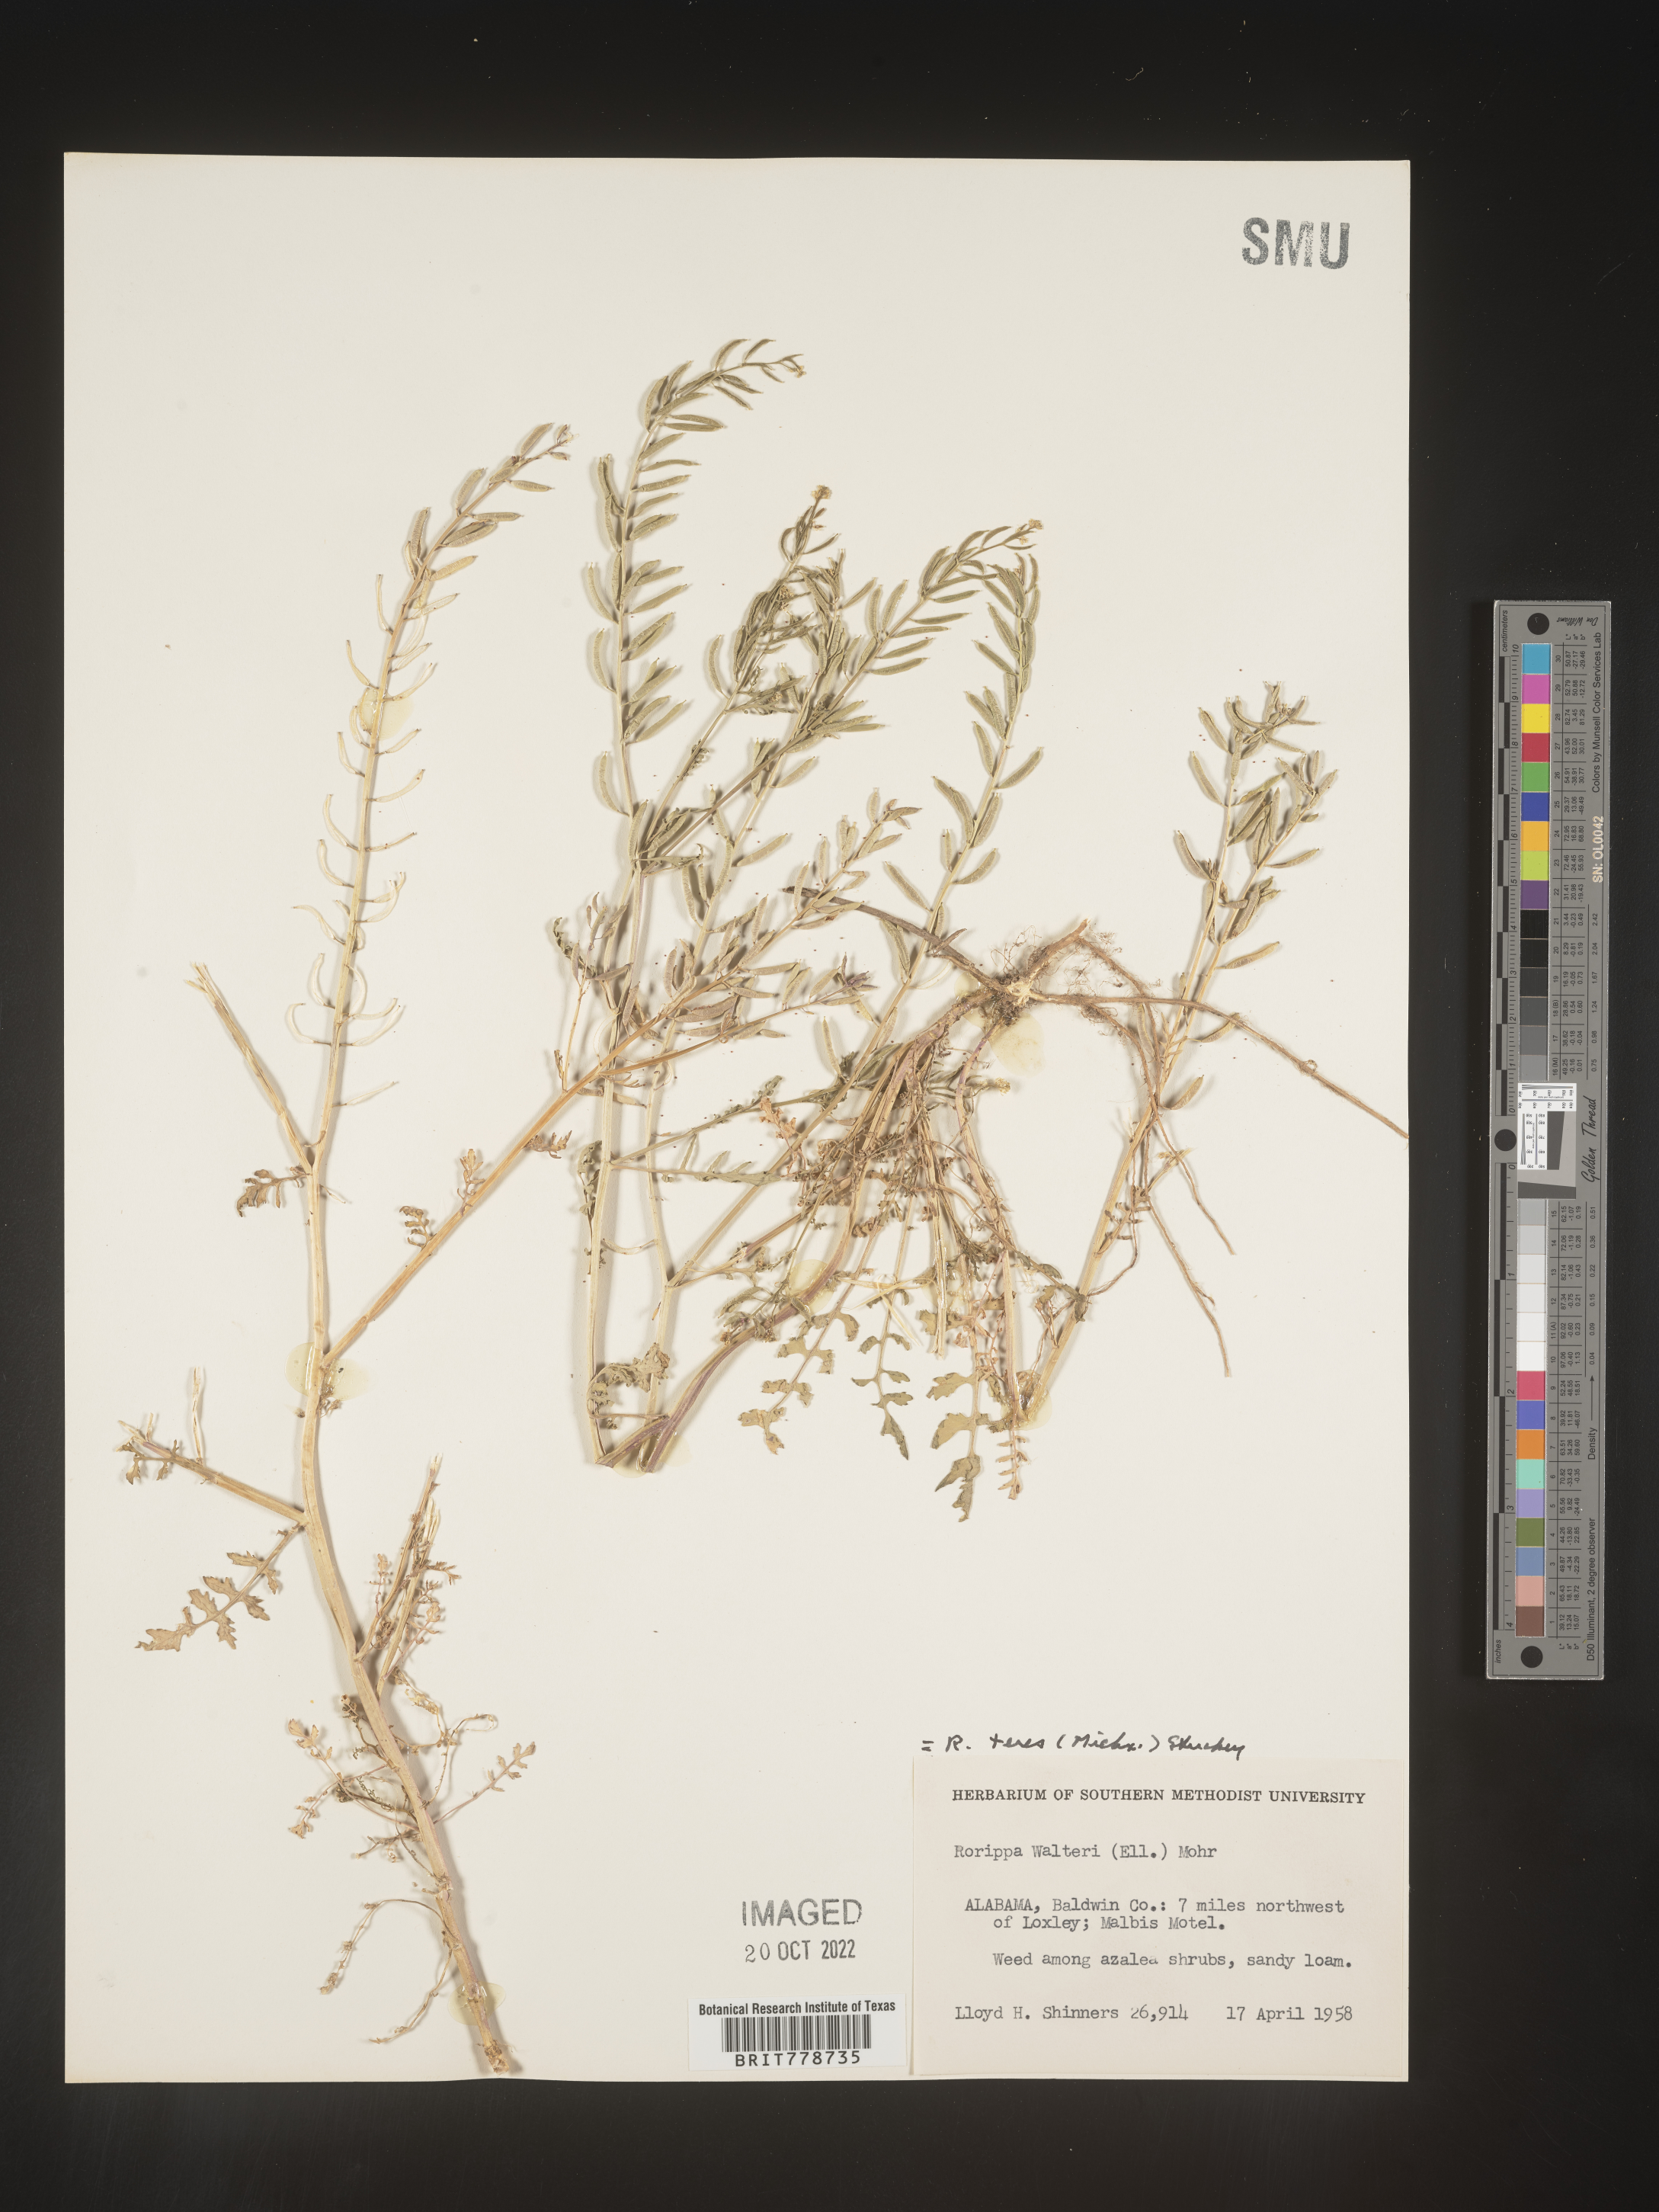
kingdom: Plantae
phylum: Tracheophyta
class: Magnoliopsida
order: Brassicales
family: Brassicaceae
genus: Rorippa
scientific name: Rorippa teres
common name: Southern marsh yellowcress
